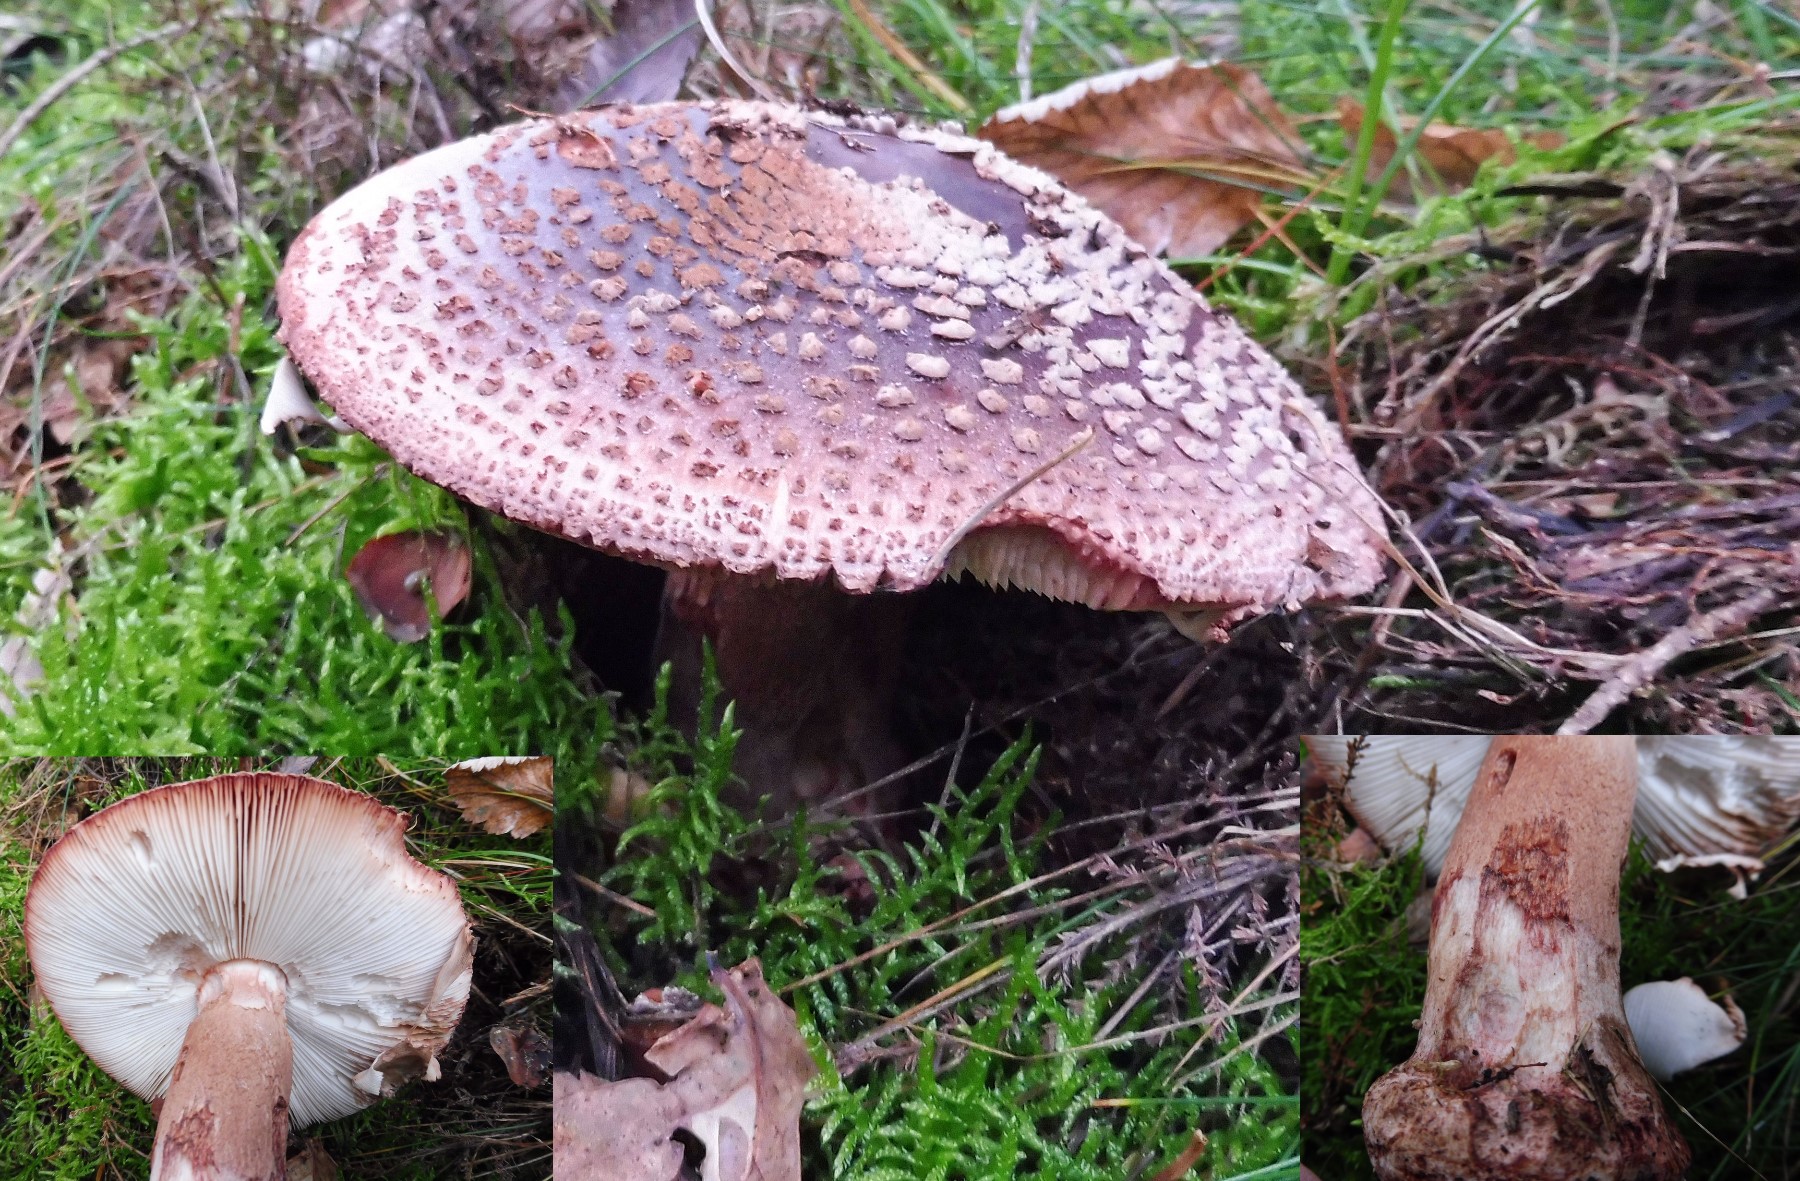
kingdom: Fungi
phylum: Basidiomycota
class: Agaricomycetes
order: Agaricales
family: Amanitaceae
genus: Amanita
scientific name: Amanita rubescens
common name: rødmende fluesvamp
